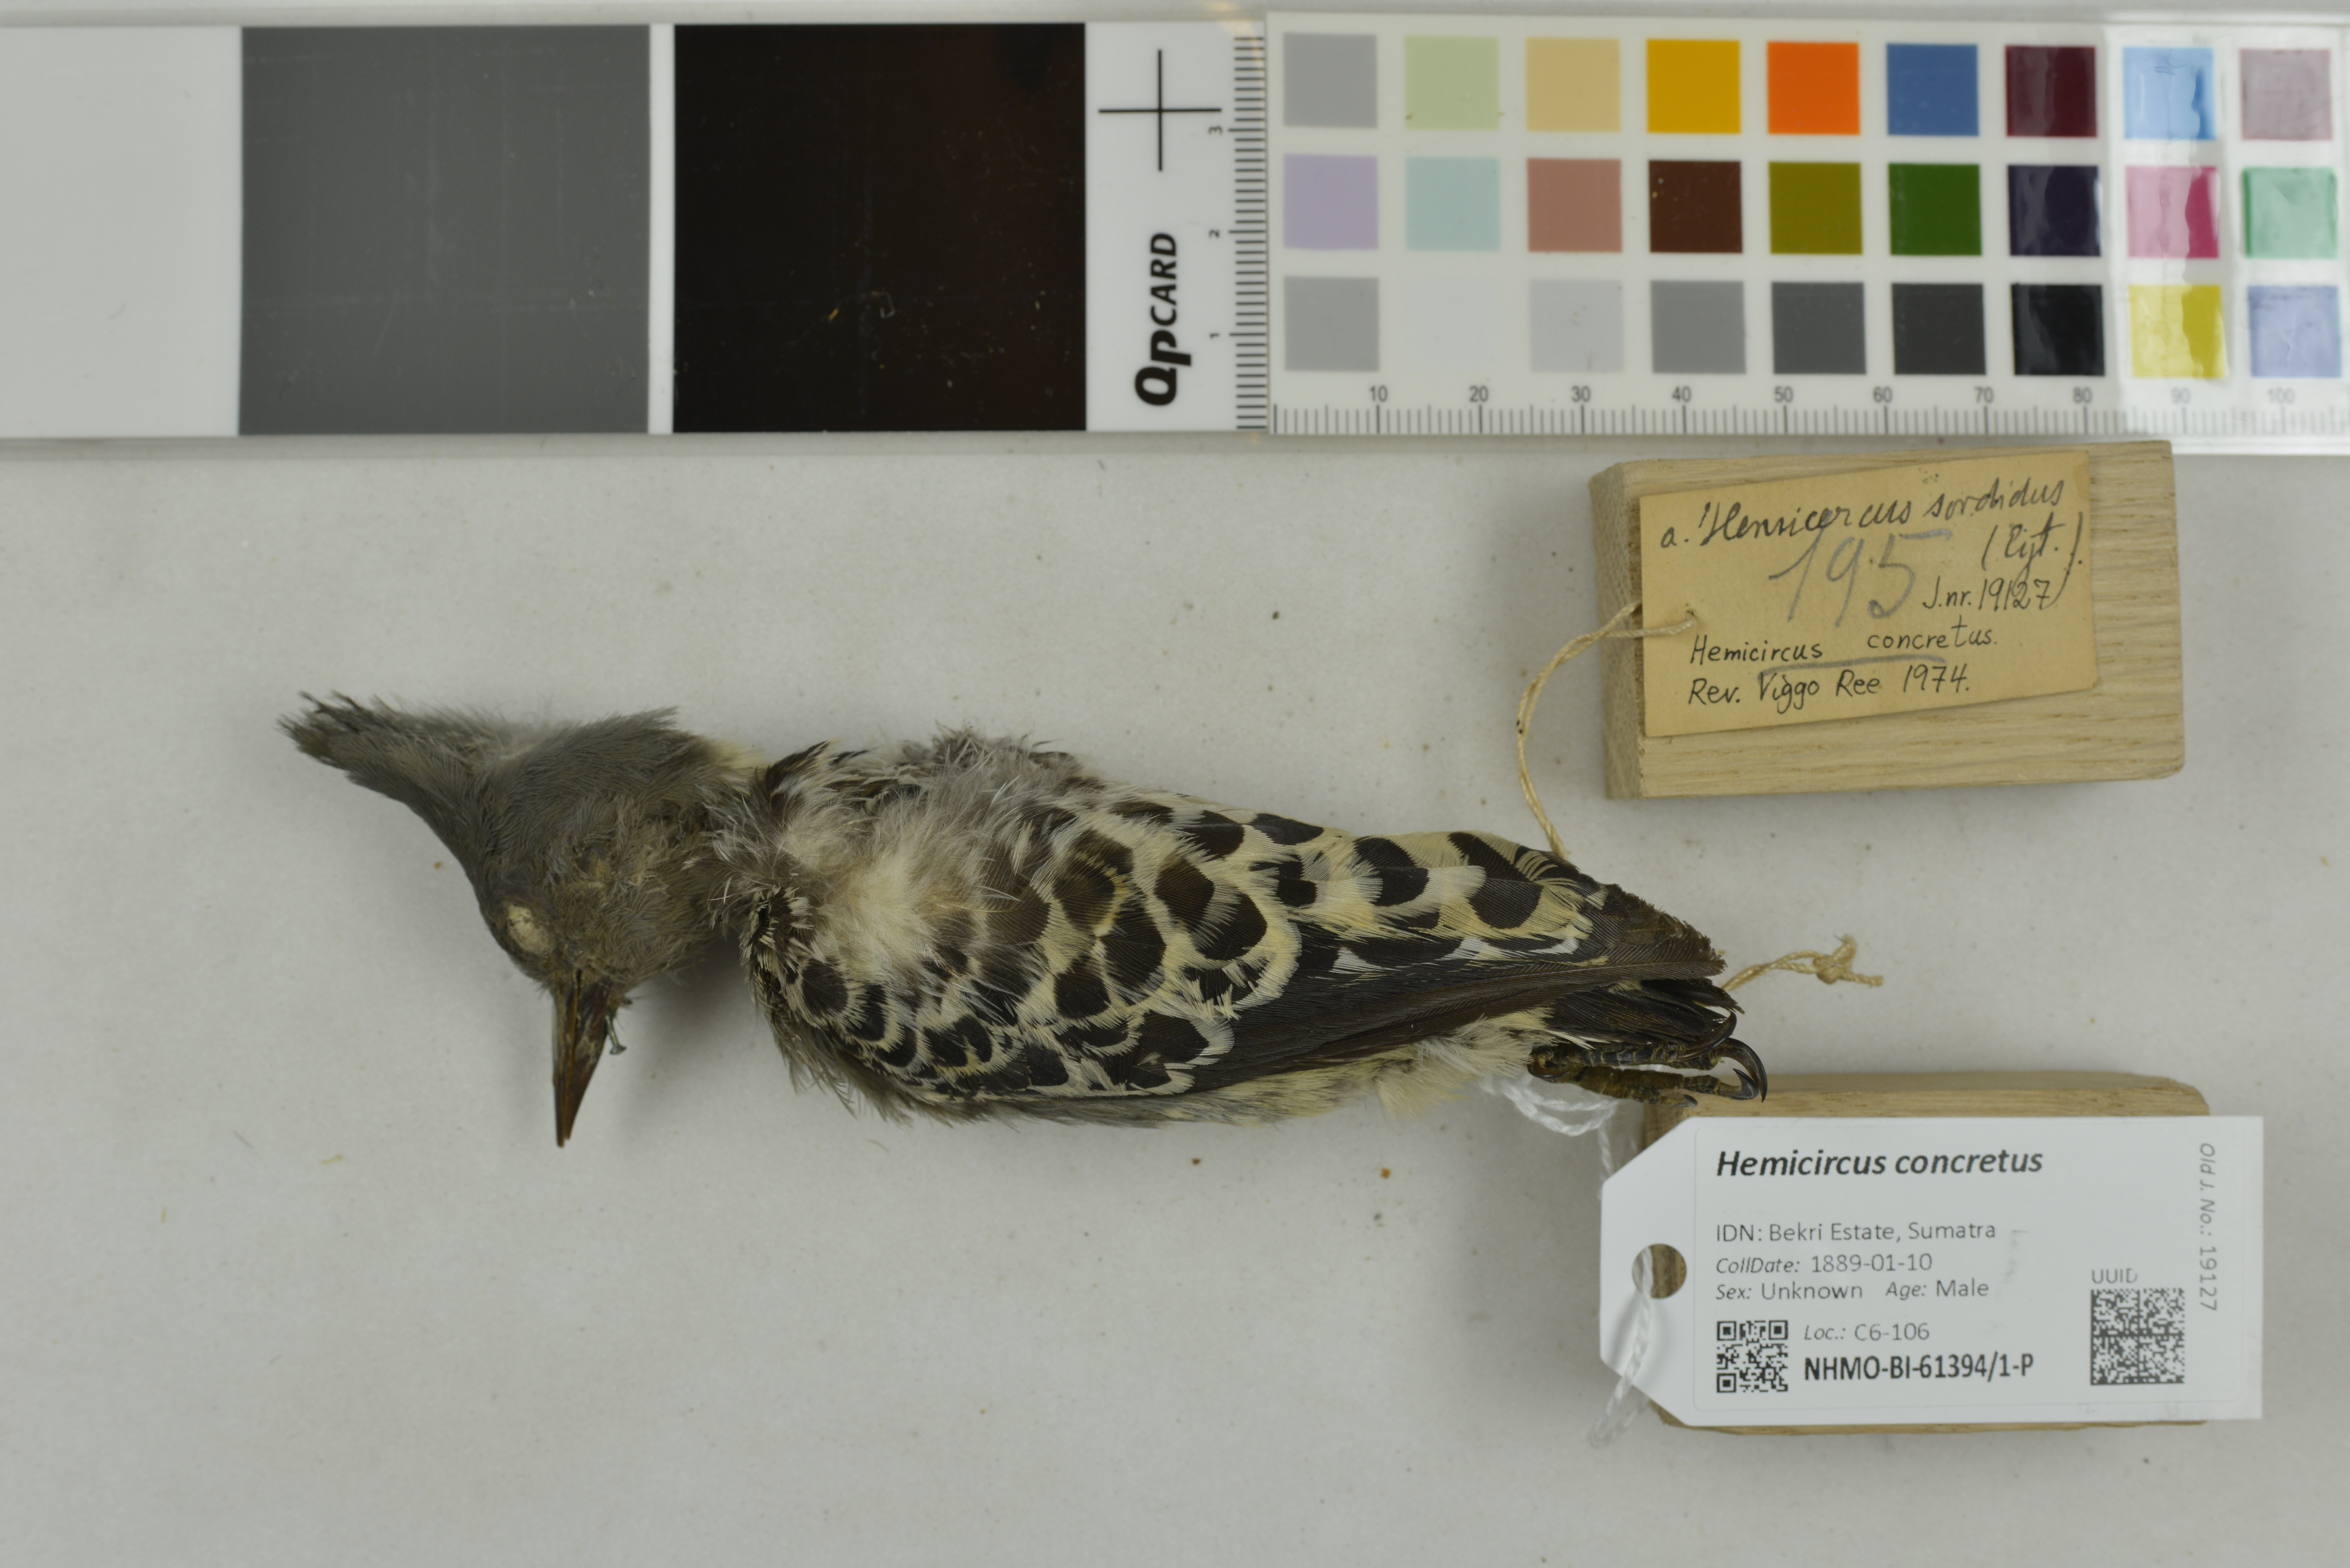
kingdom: Animalia
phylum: Chordata
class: Aves
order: Piciformes
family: Picidae
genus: Hemicircus
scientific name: Hemicircus concretus
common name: Grey-and-buff woodpecker
